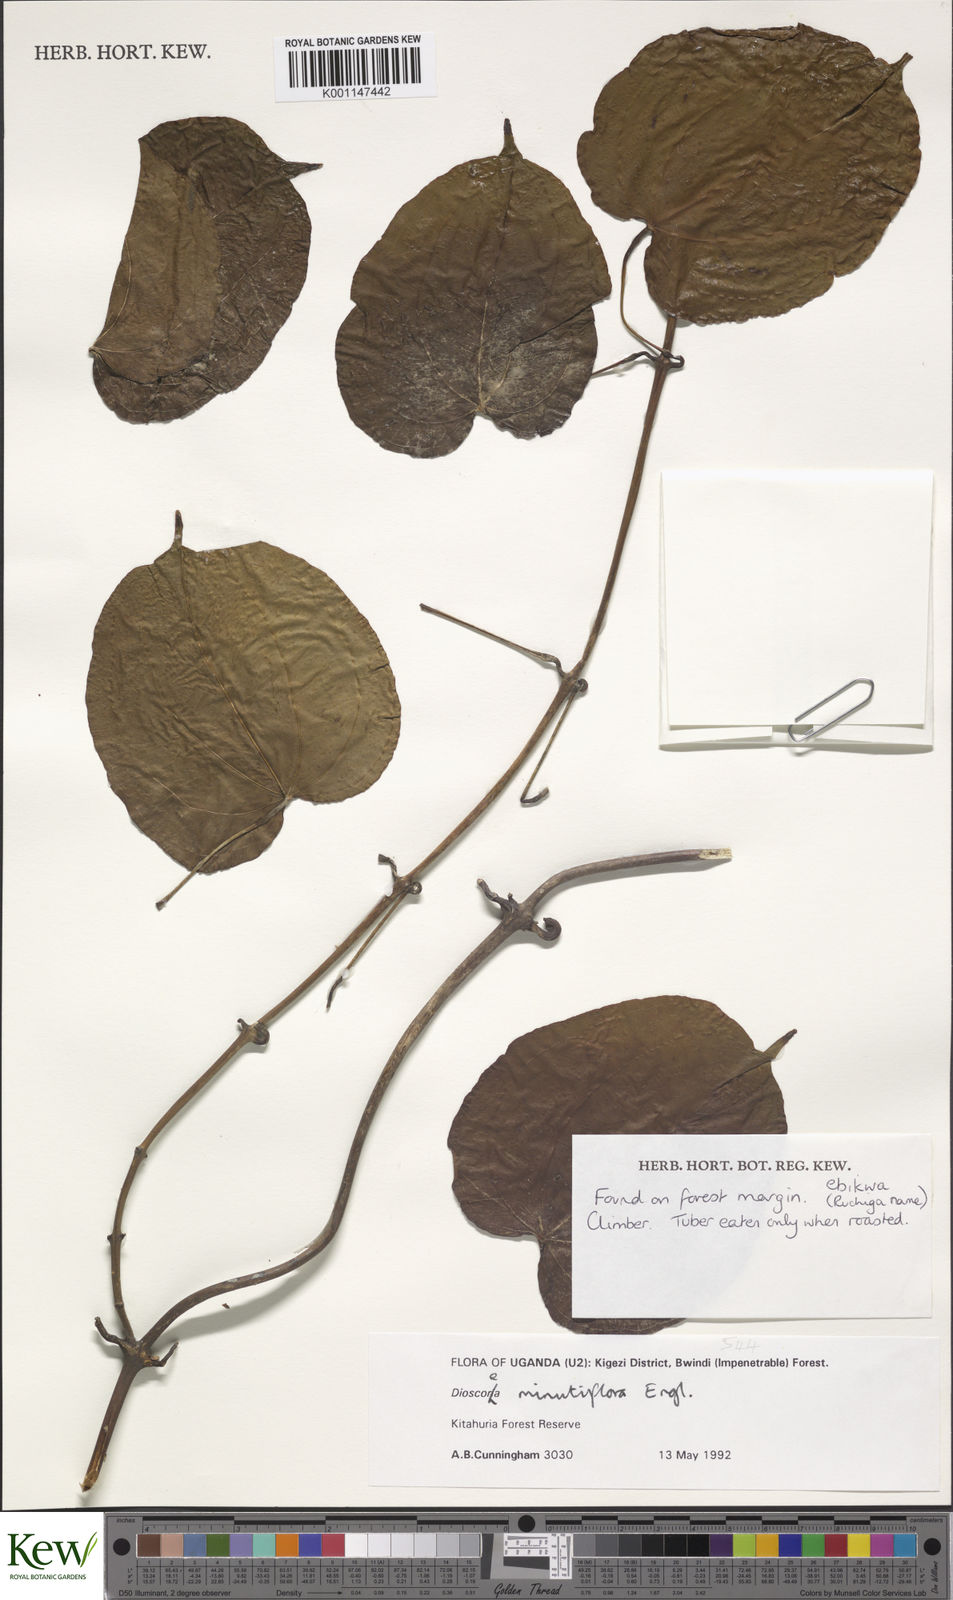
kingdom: Plantae
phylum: Tracheophyta
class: Liliopsida
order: Dioscoreales
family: Dioscoreaceae
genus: Dioscorea
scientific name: Dioscorea minutiflora
